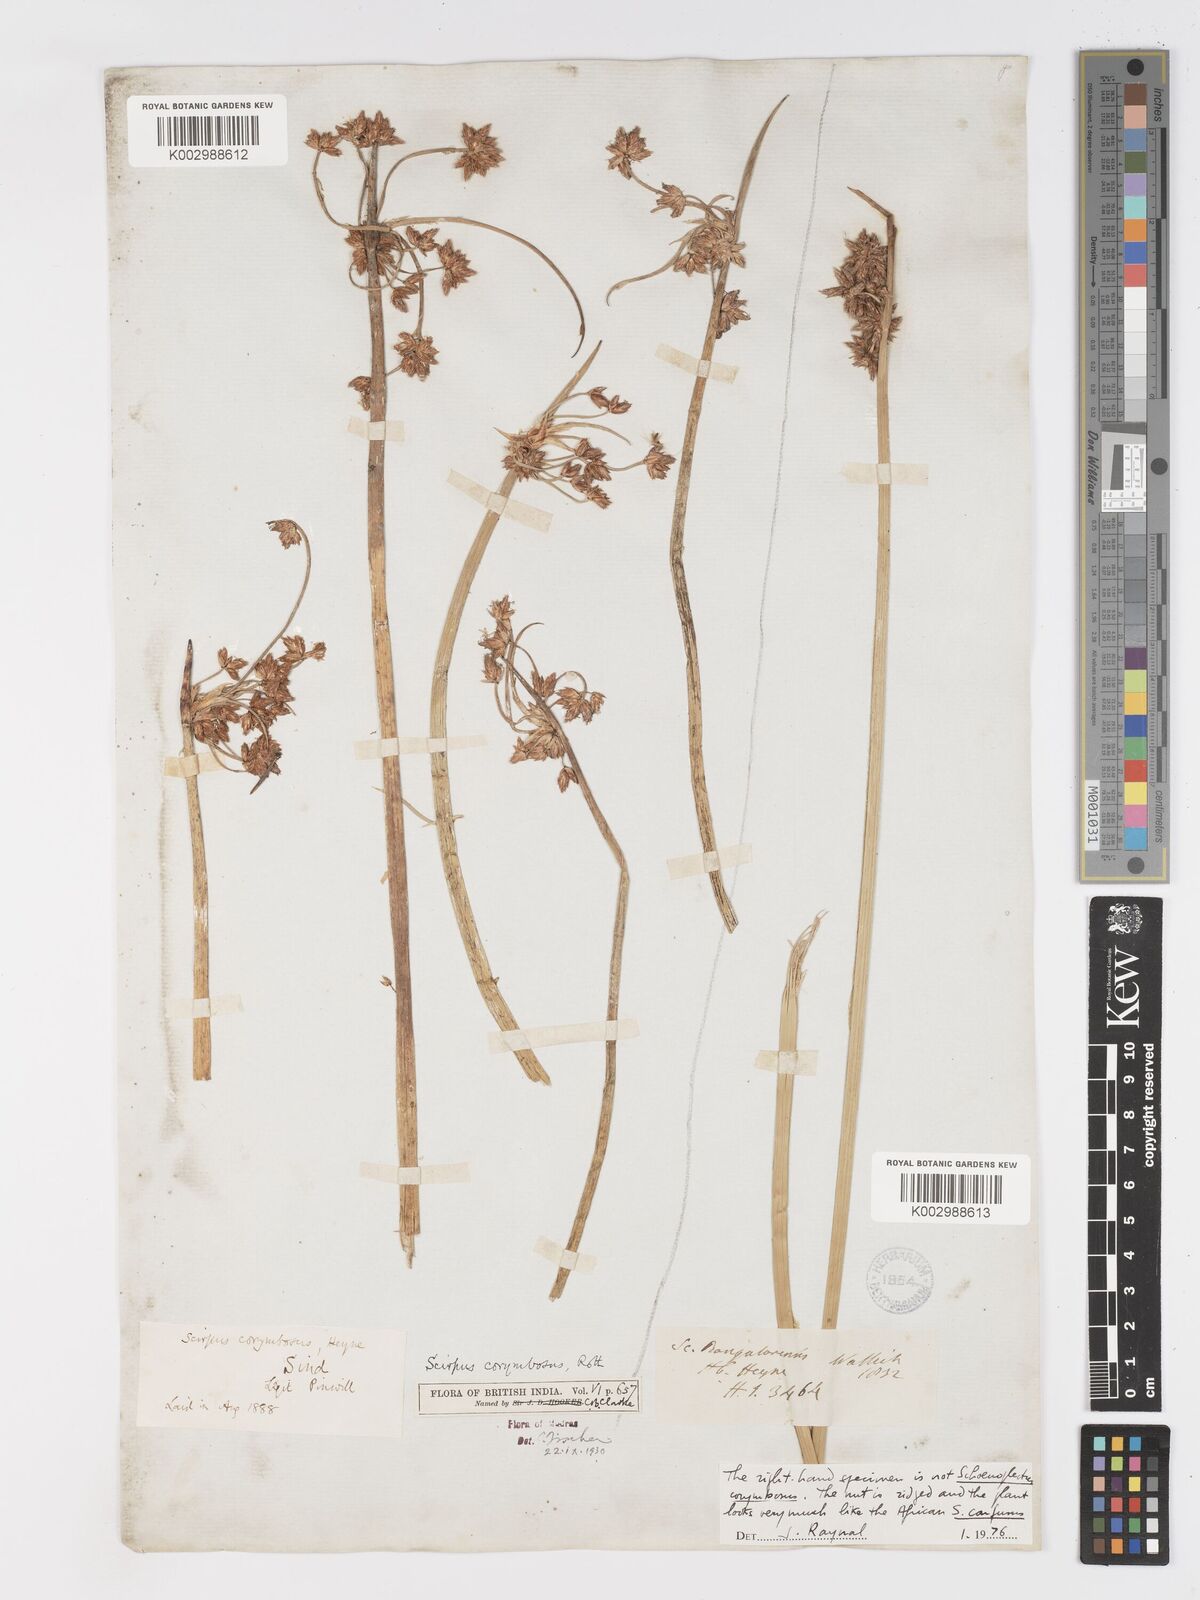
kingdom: Plantae
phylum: Tracheophyta
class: Liliopsida
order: Poales
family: Cyperaceae
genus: Schoenoplectiella
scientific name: Schoenoplectiella corymbosa
